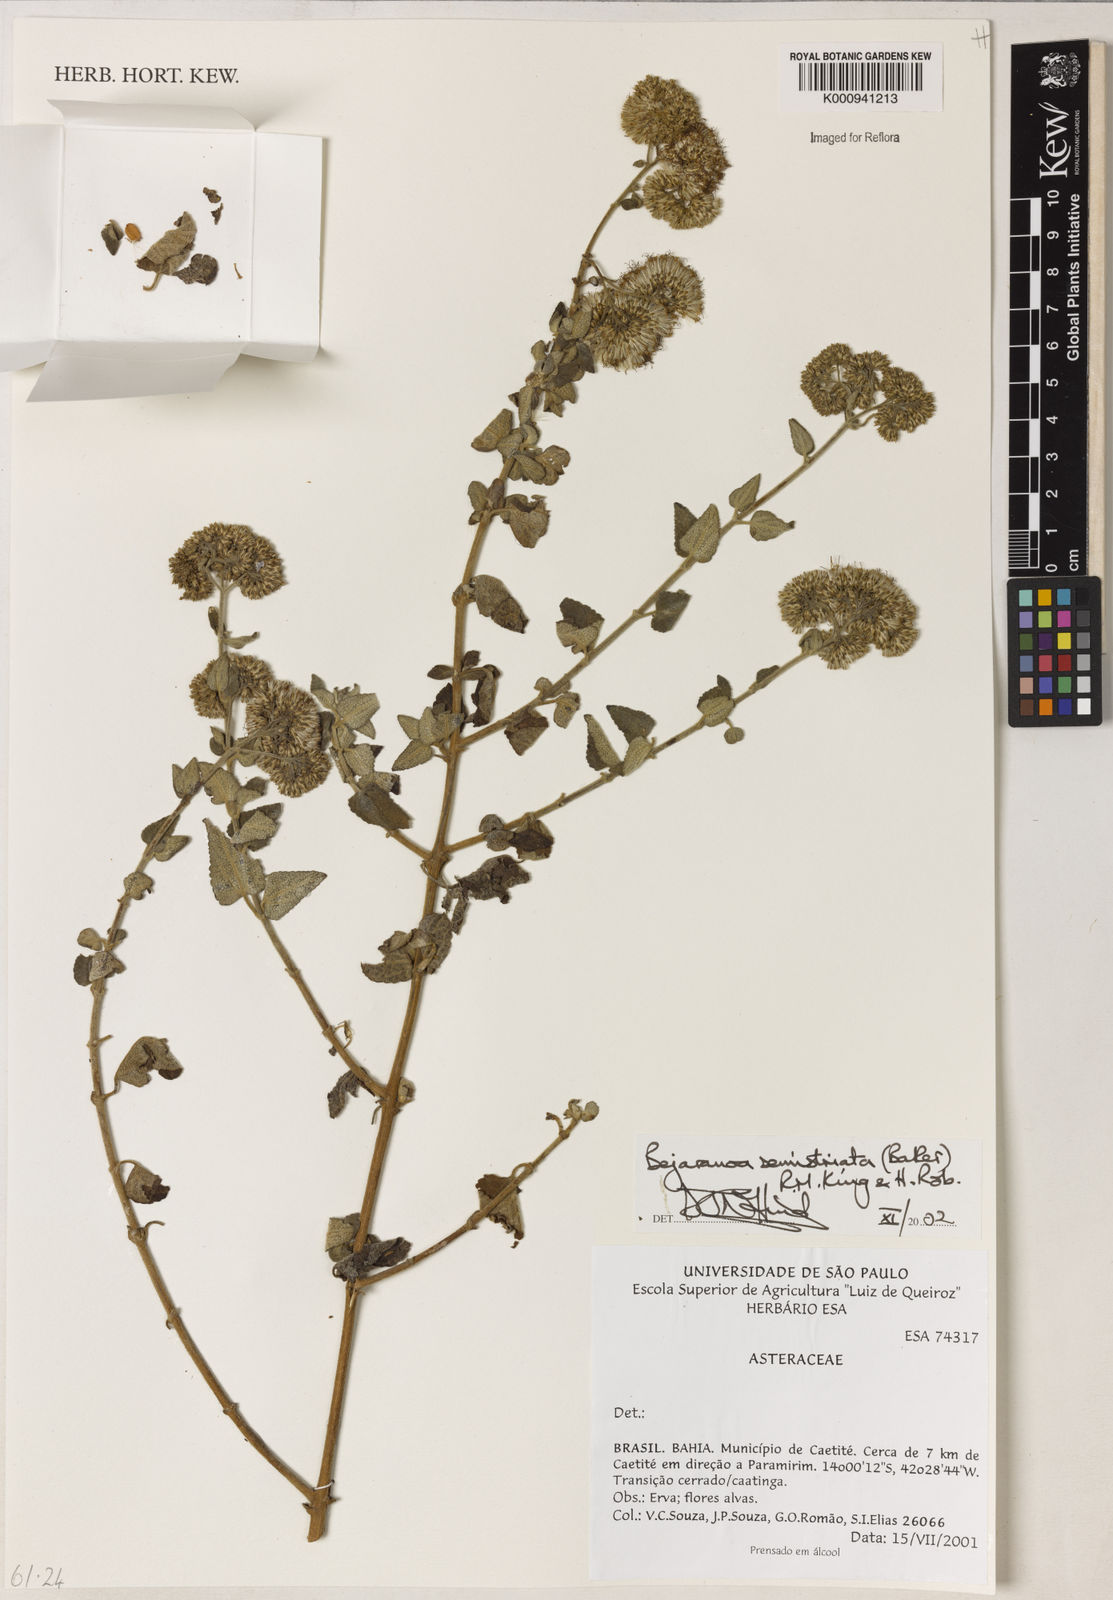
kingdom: Plantae
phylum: Tracheophyta
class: Magnoliopsida
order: Asterales
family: Asteraceae
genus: Bejaranoa
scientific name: Bejaranoa semistriata
